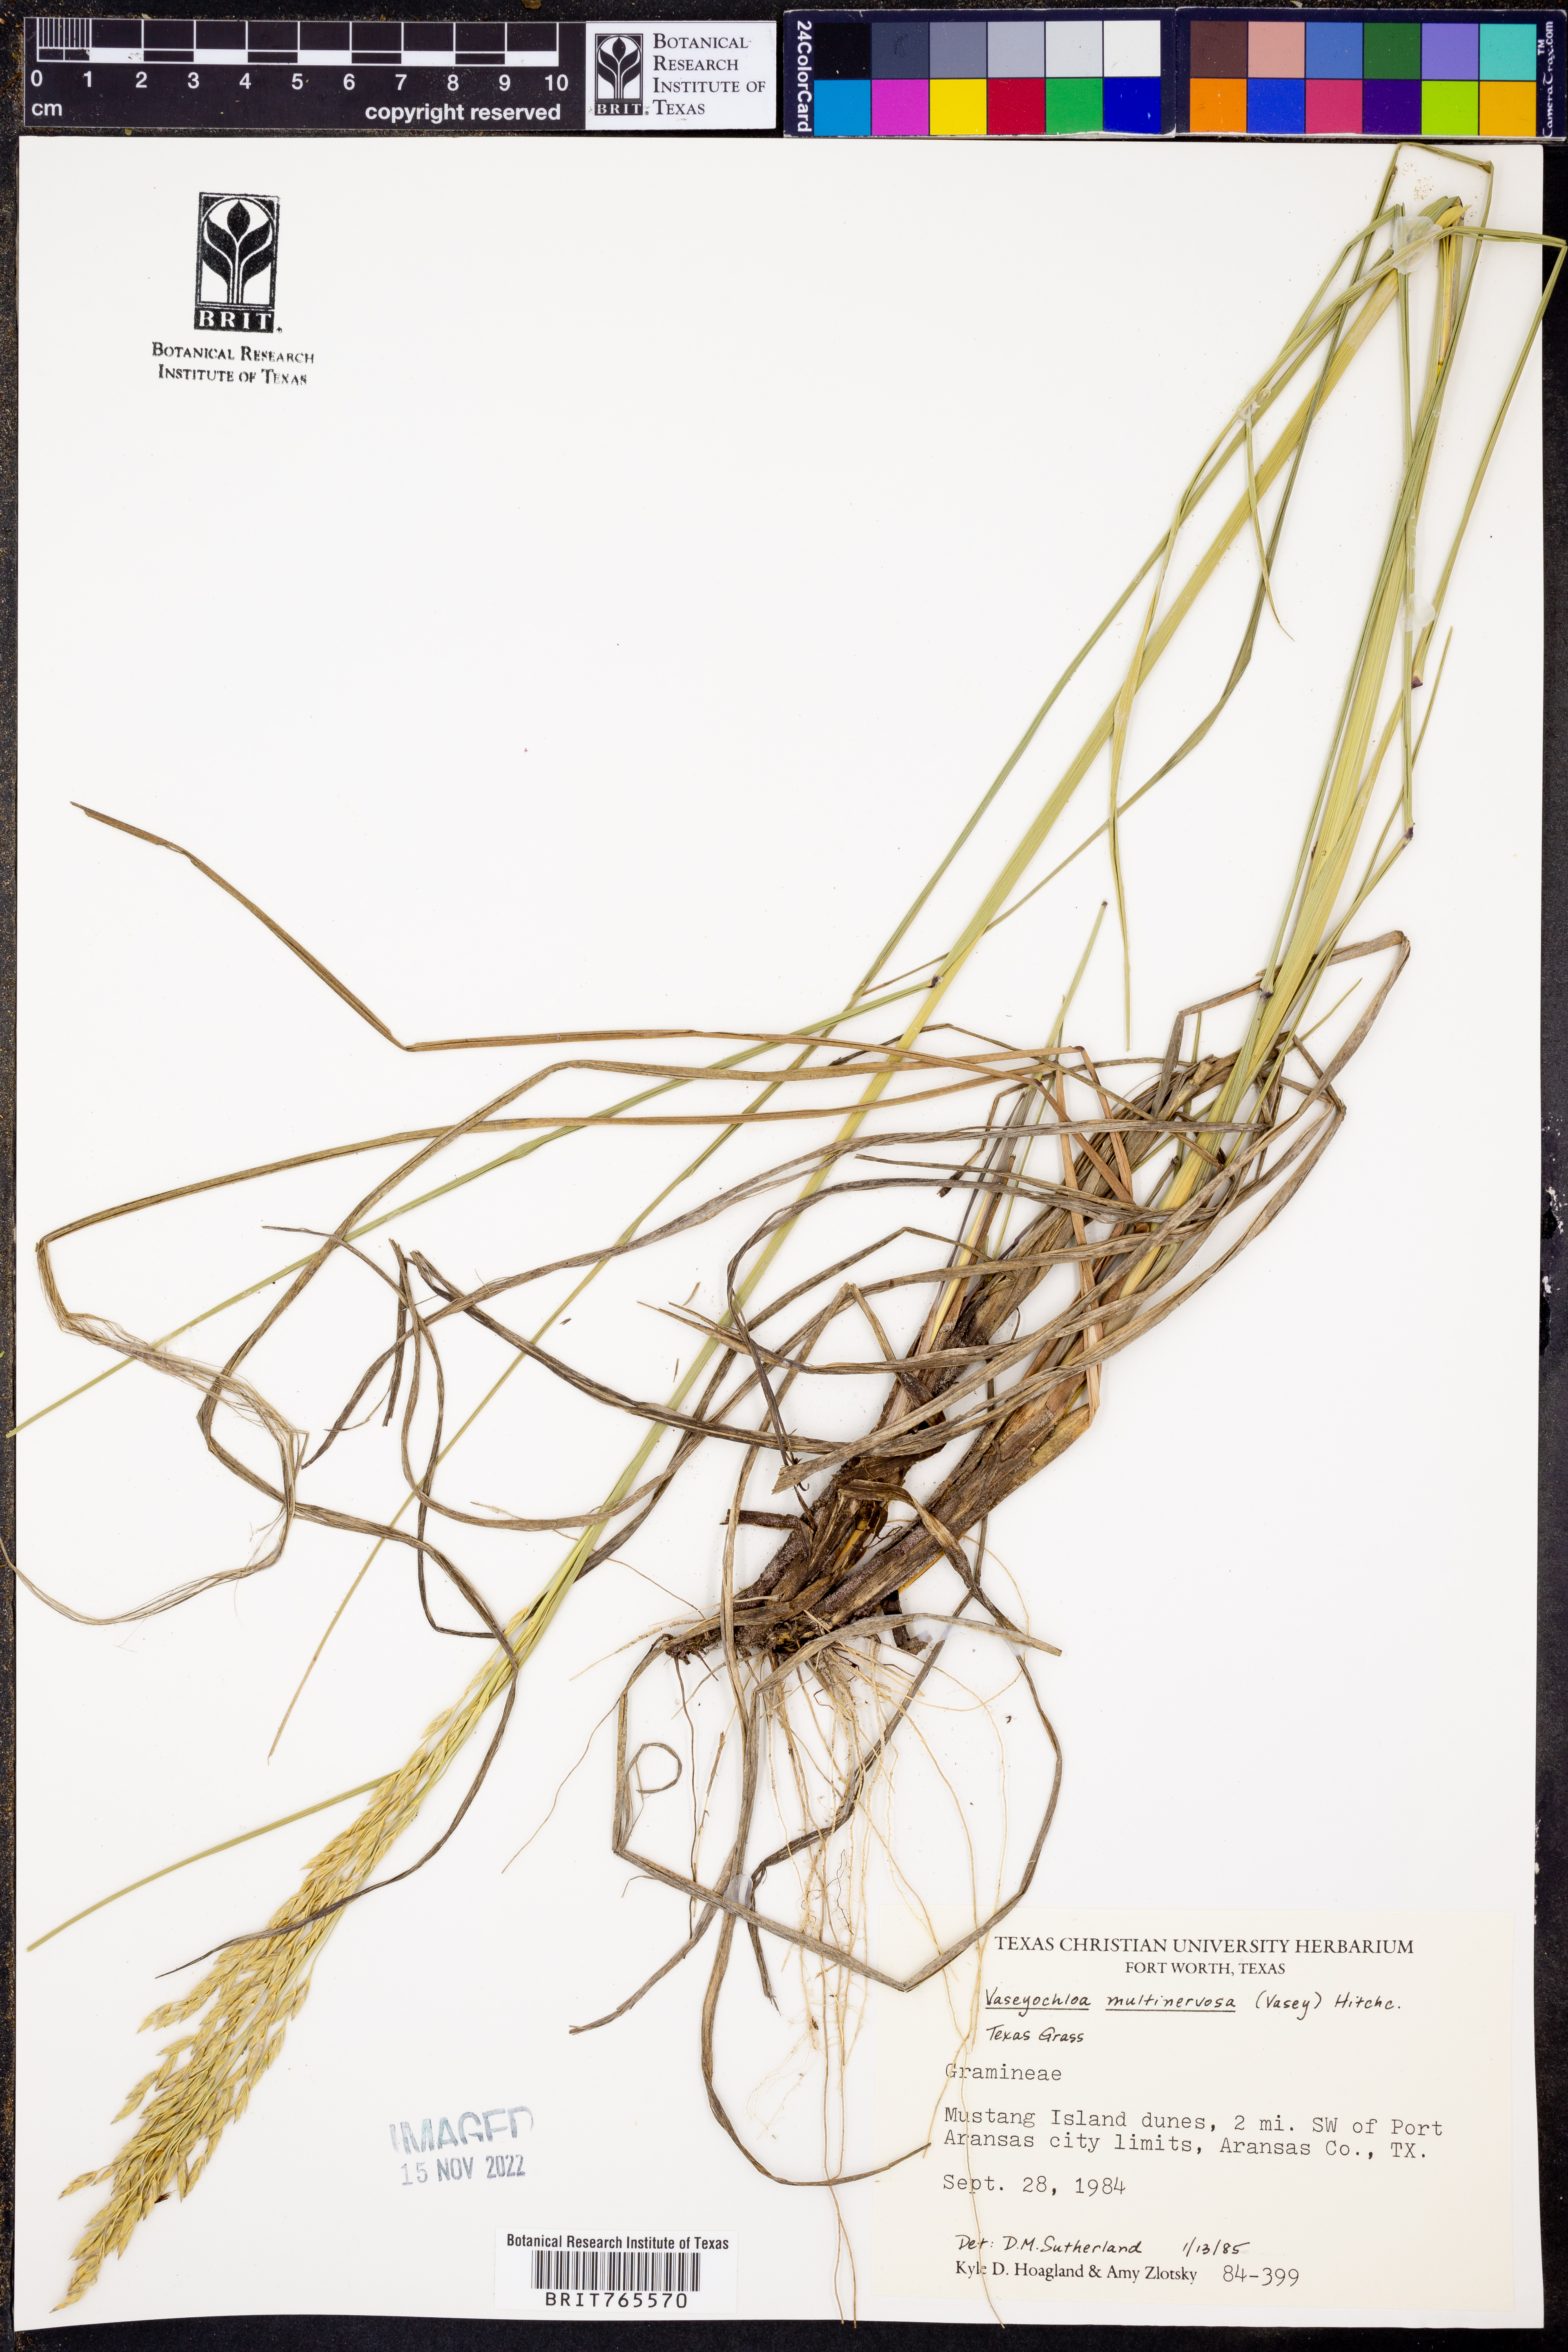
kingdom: Plantae
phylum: Tracheophyta
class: Liliopsida
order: Poales
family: Poaceae
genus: Vaseyochloa
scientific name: Vaseyochloa multinervosa
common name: Texas grass
